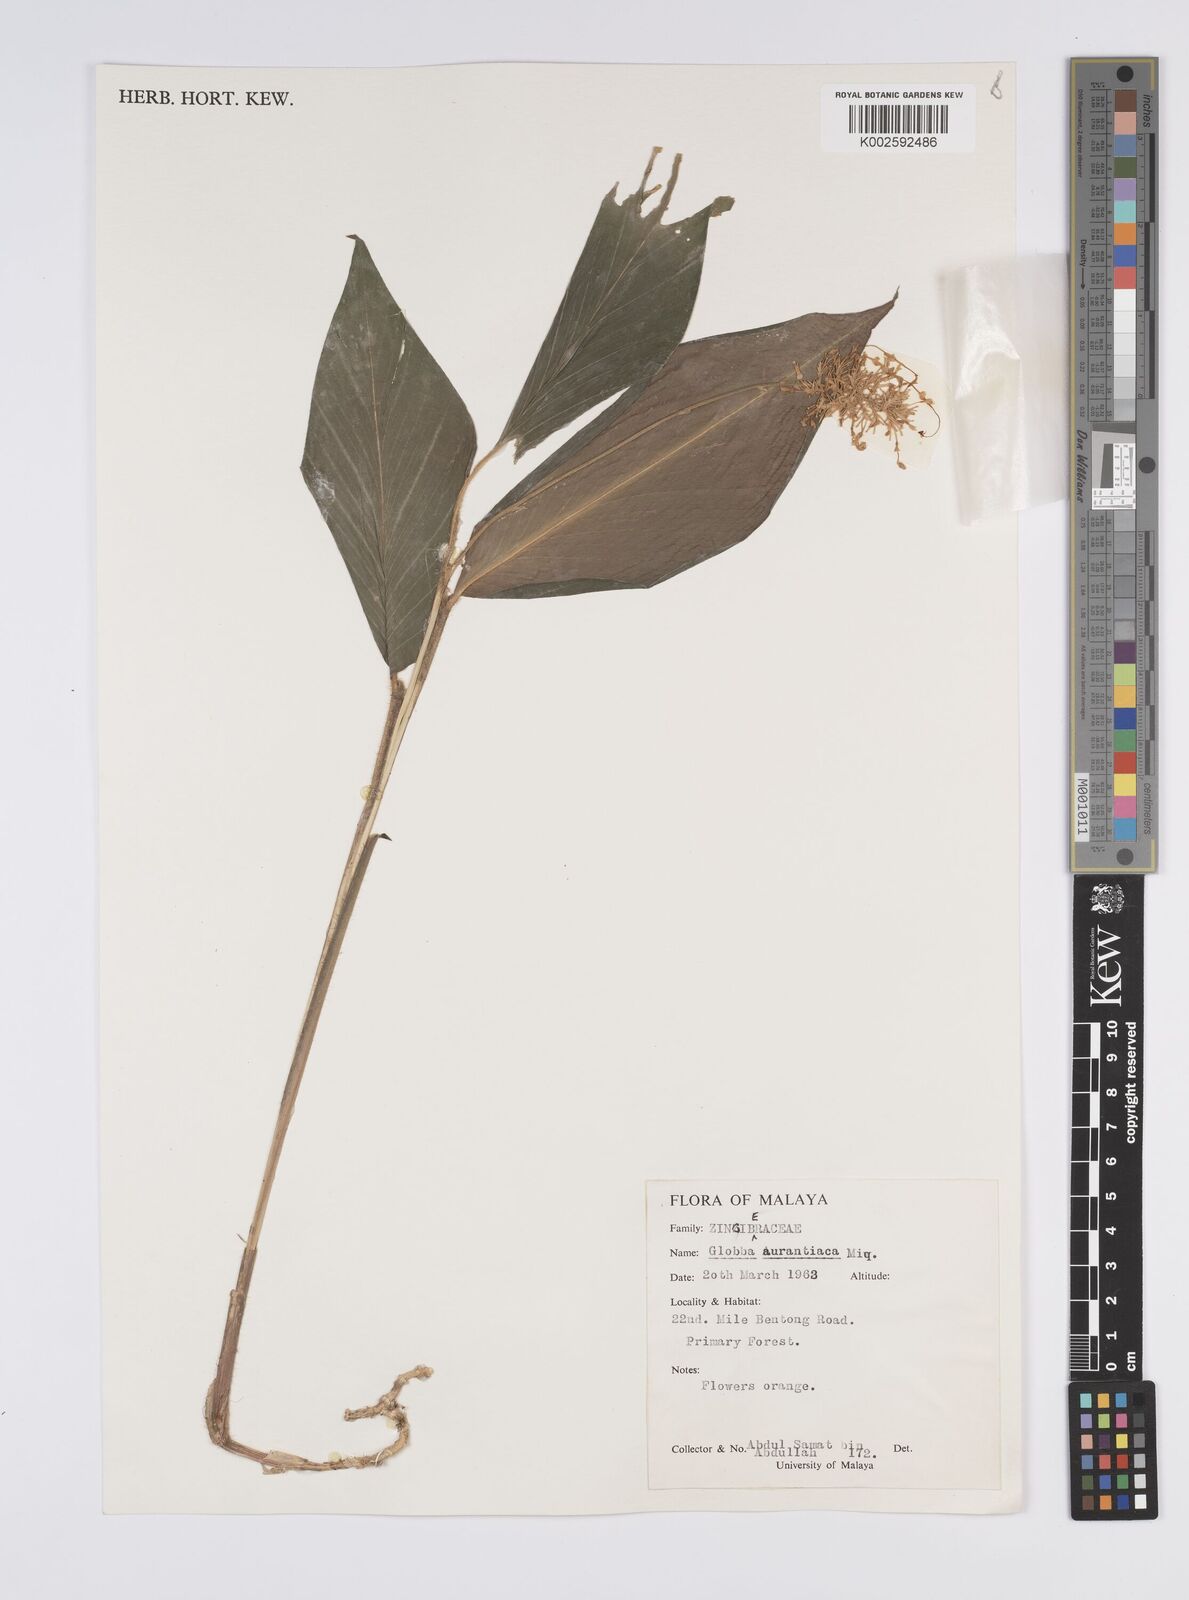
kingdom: Plantae
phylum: Tracheophyta
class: Liliopsida
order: Zingiberales
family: Zingiberaceae
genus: Globba
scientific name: Globba aurantiaca
